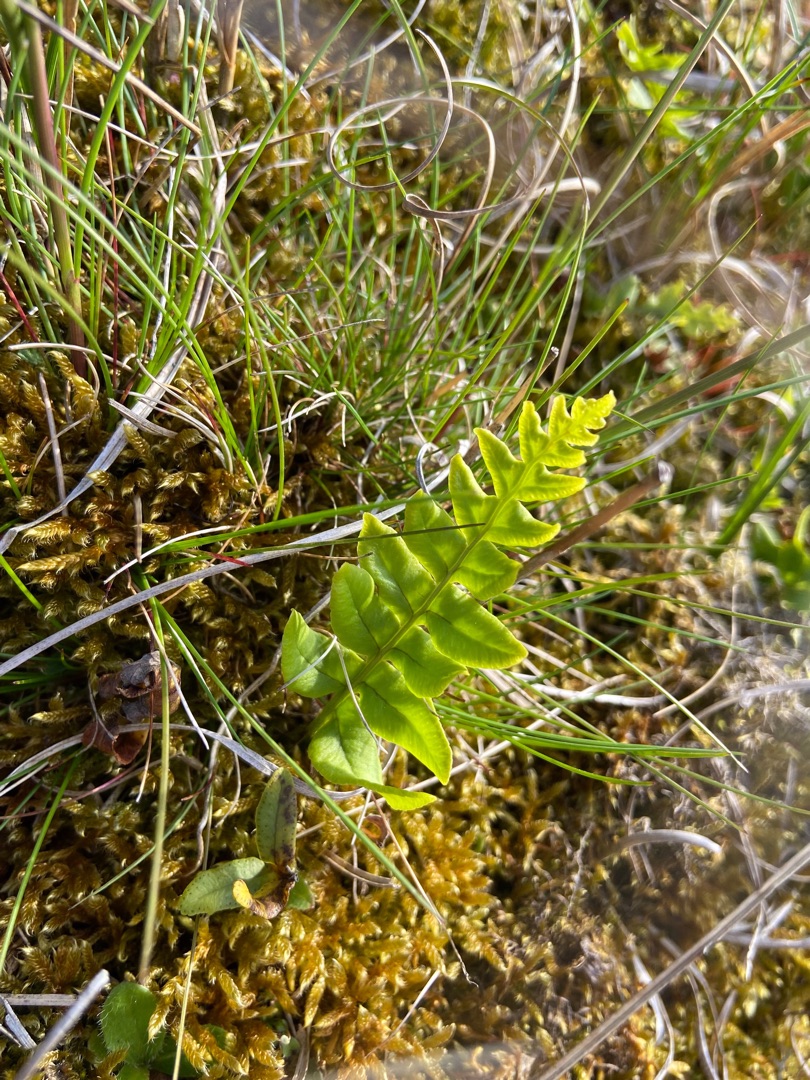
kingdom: Plantae
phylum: Tracheophyta
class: Polypodiopsida
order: Polypodiales
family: Polypodiaceae
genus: Polypodium
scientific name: Polypodium vulgare
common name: Almindelig engelsød
